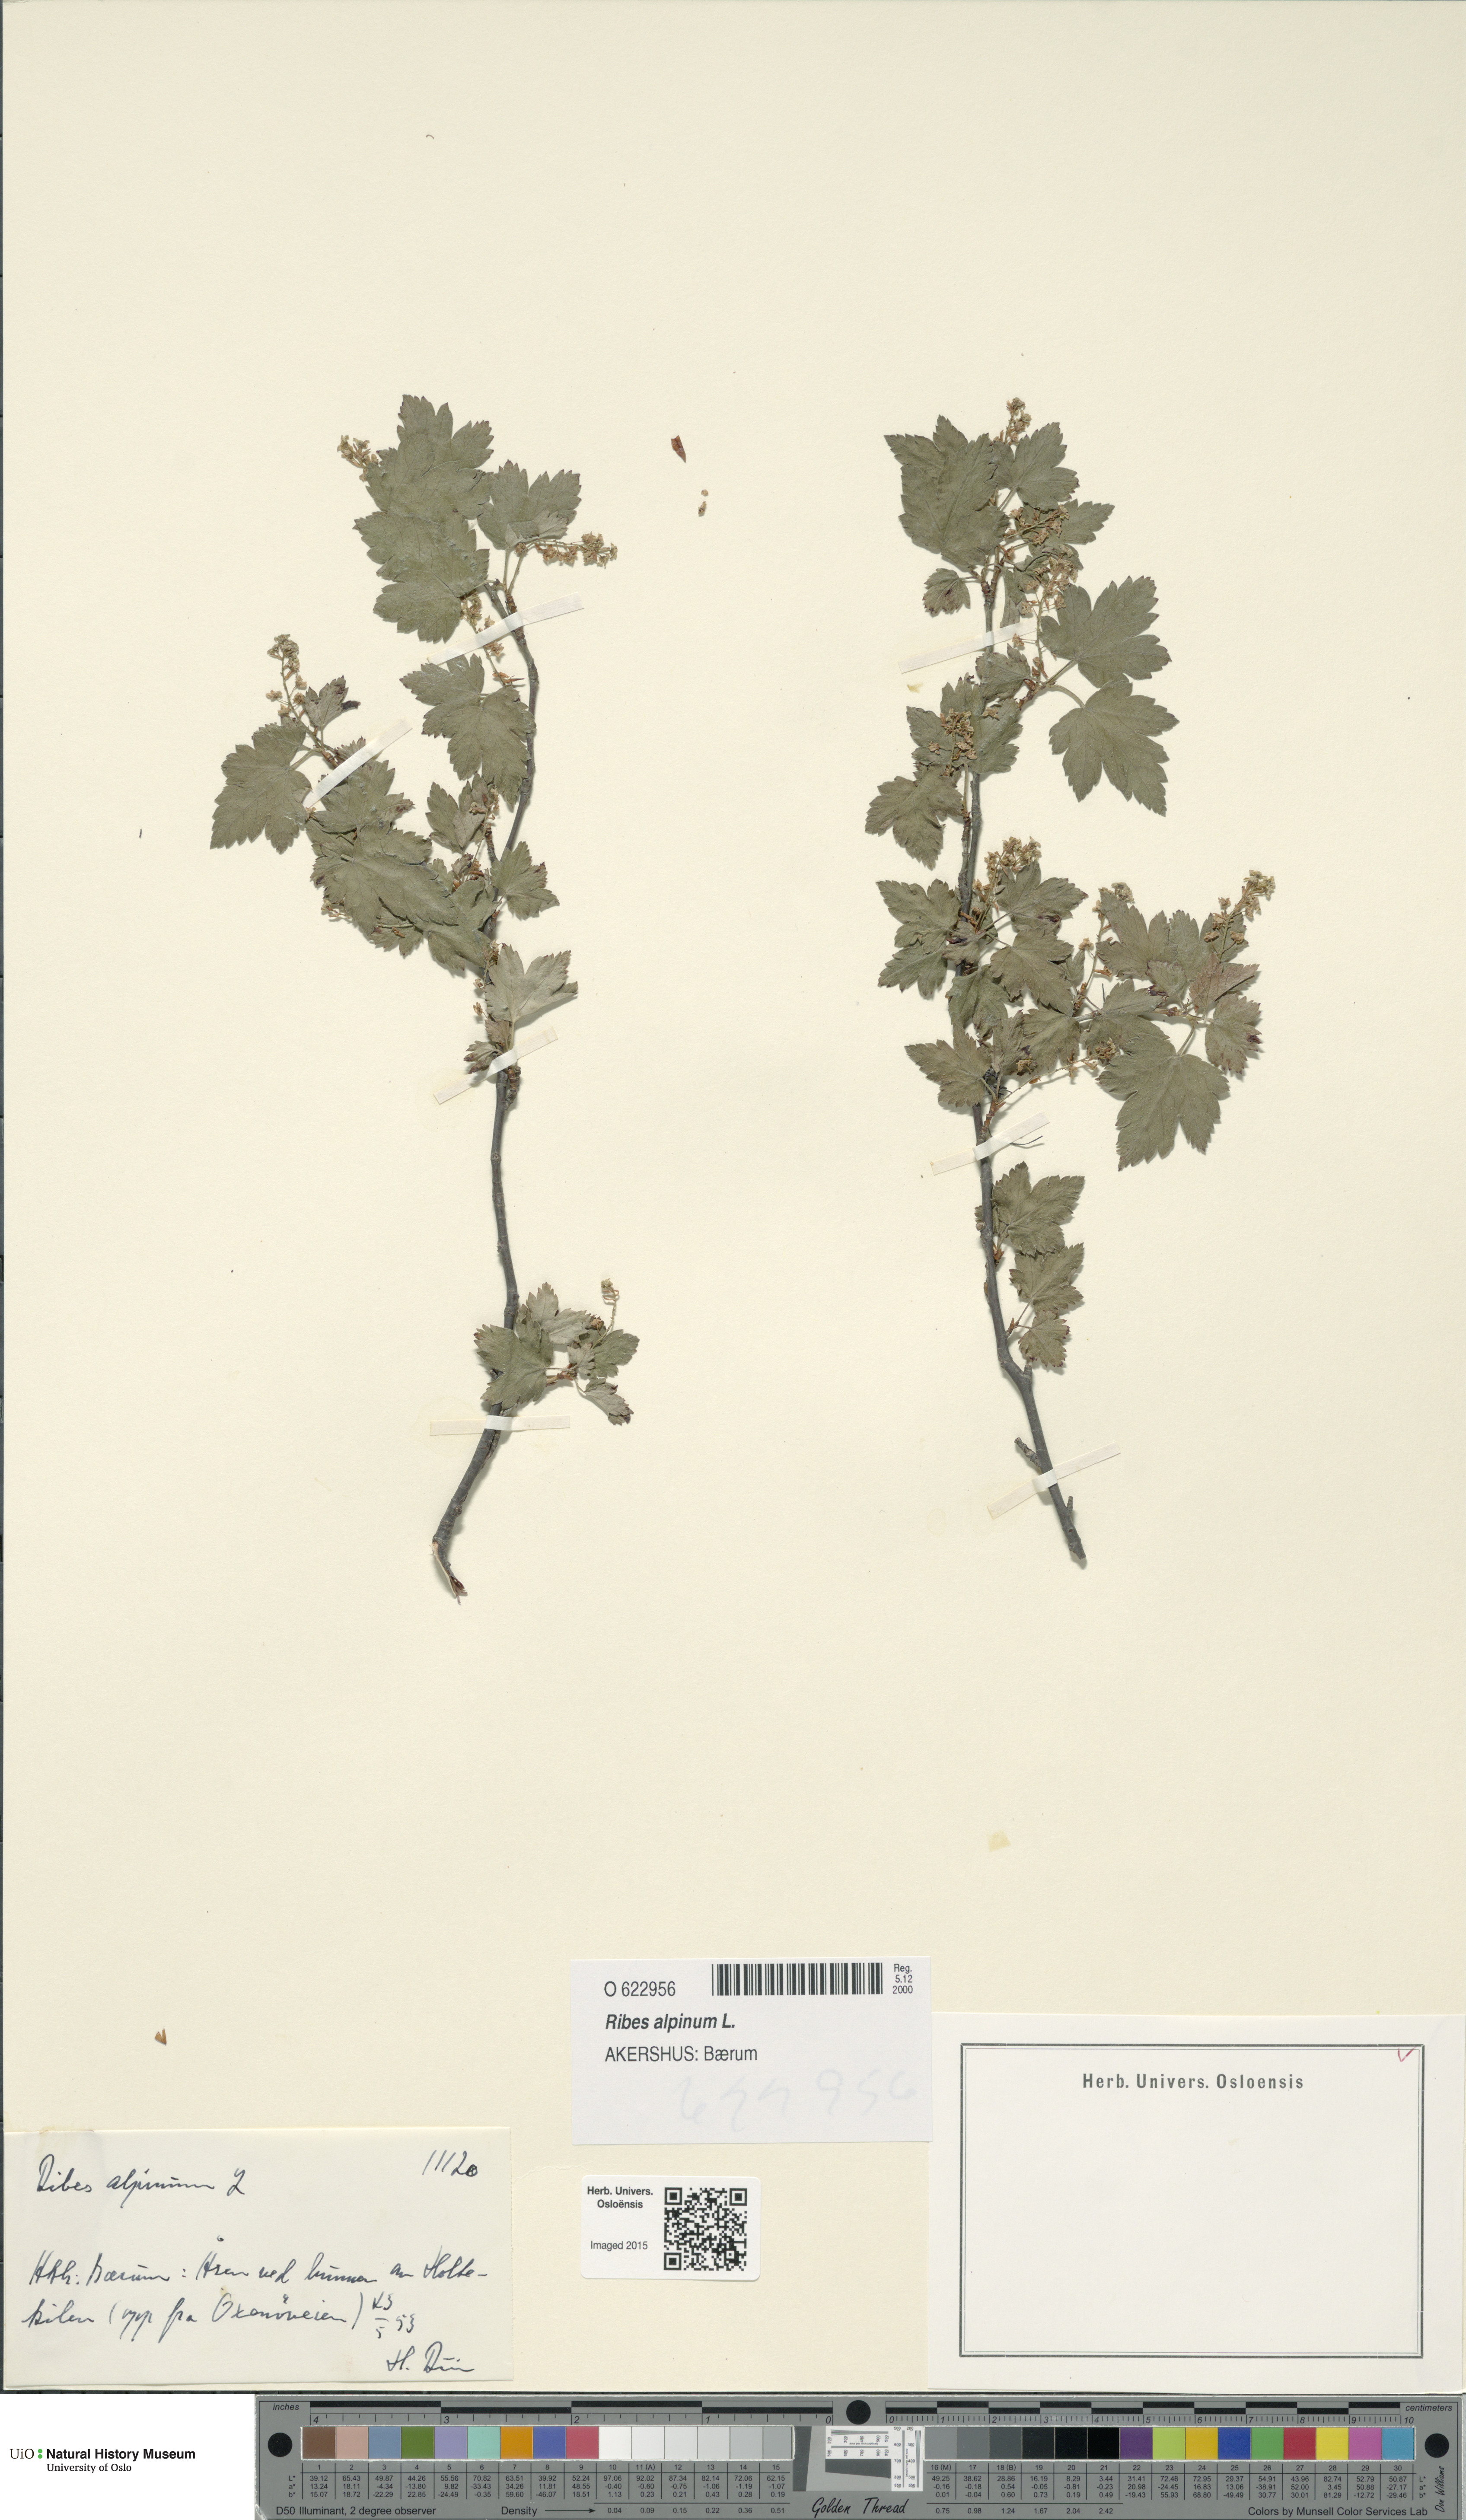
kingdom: Plantae
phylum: Tracheophyta
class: Magnoliopsida
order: Saxifragales
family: Grossulariaceae
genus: Ribes
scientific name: Ribes alpinum
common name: Alpine currant
